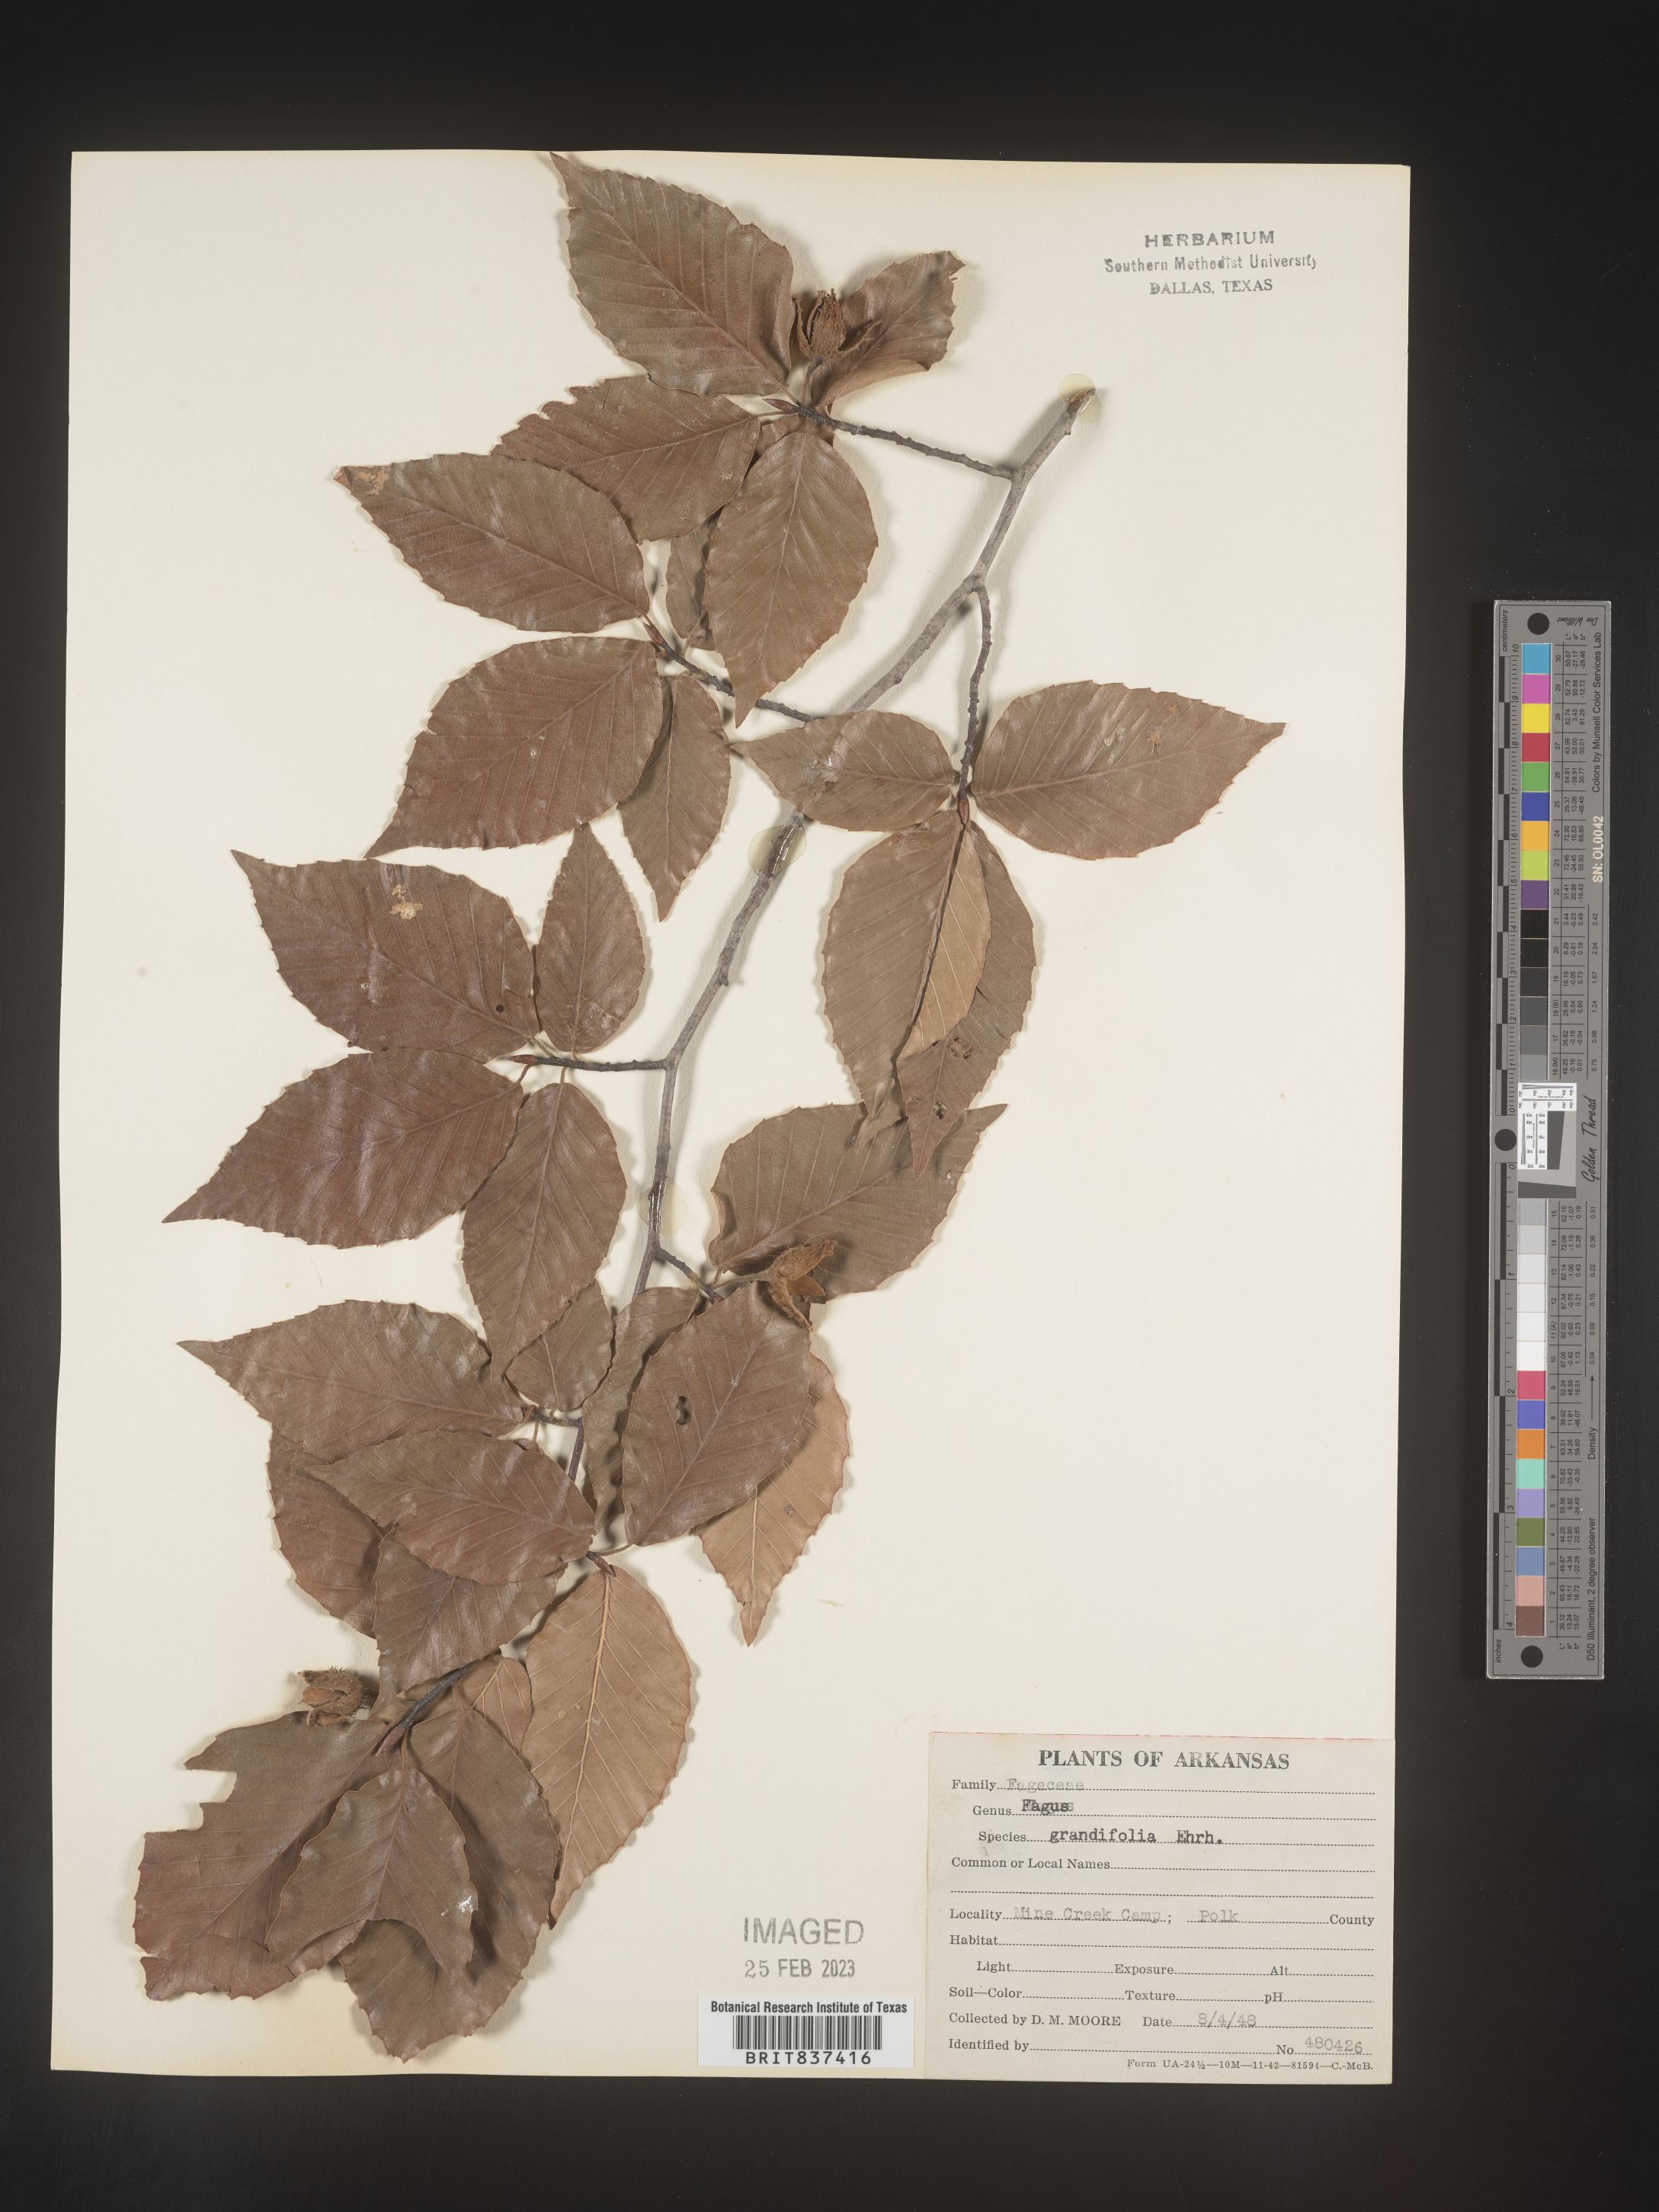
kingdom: Plantae
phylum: Tracheophyta
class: Magnoliopsida
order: Fagales
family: Fagaceae
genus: Fagus
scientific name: Fagus grandifolia
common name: American beech
